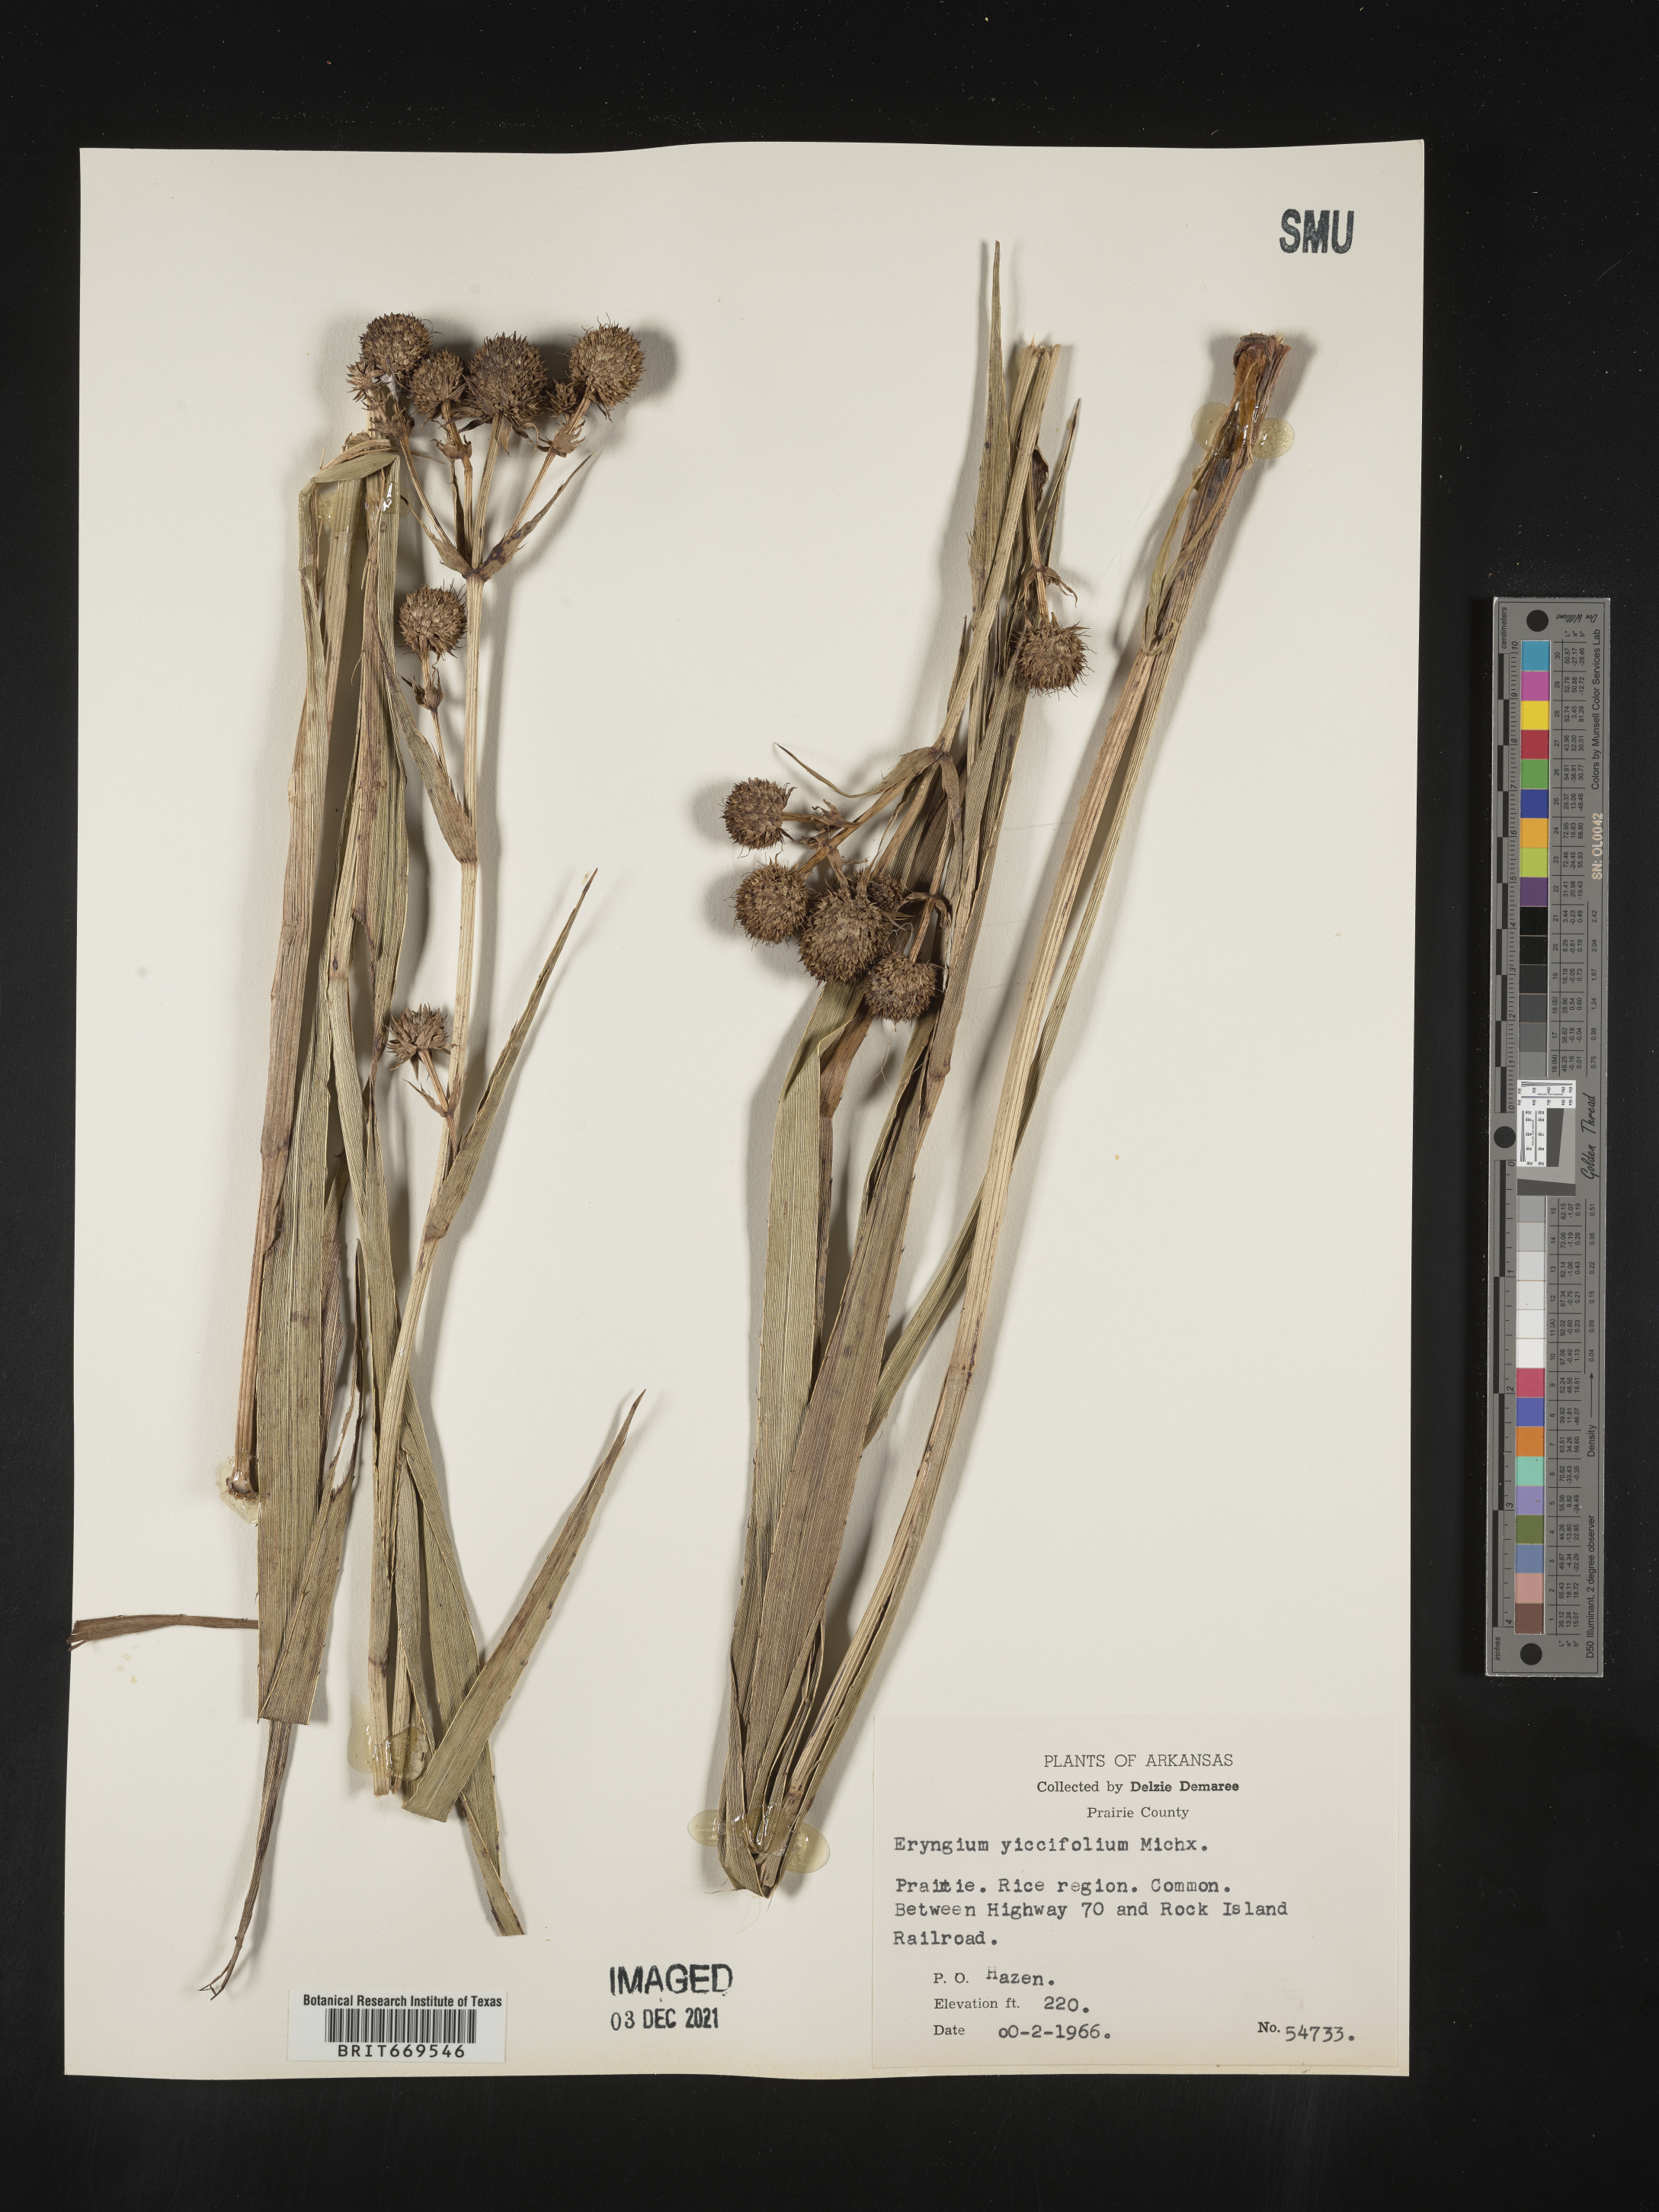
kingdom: Plantae
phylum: Tracheophyta
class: Magnoliopsida
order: Apiales
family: Apiaceae
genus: Eryngium
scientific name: Eryngium yuccifolium
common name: Button eryngo
